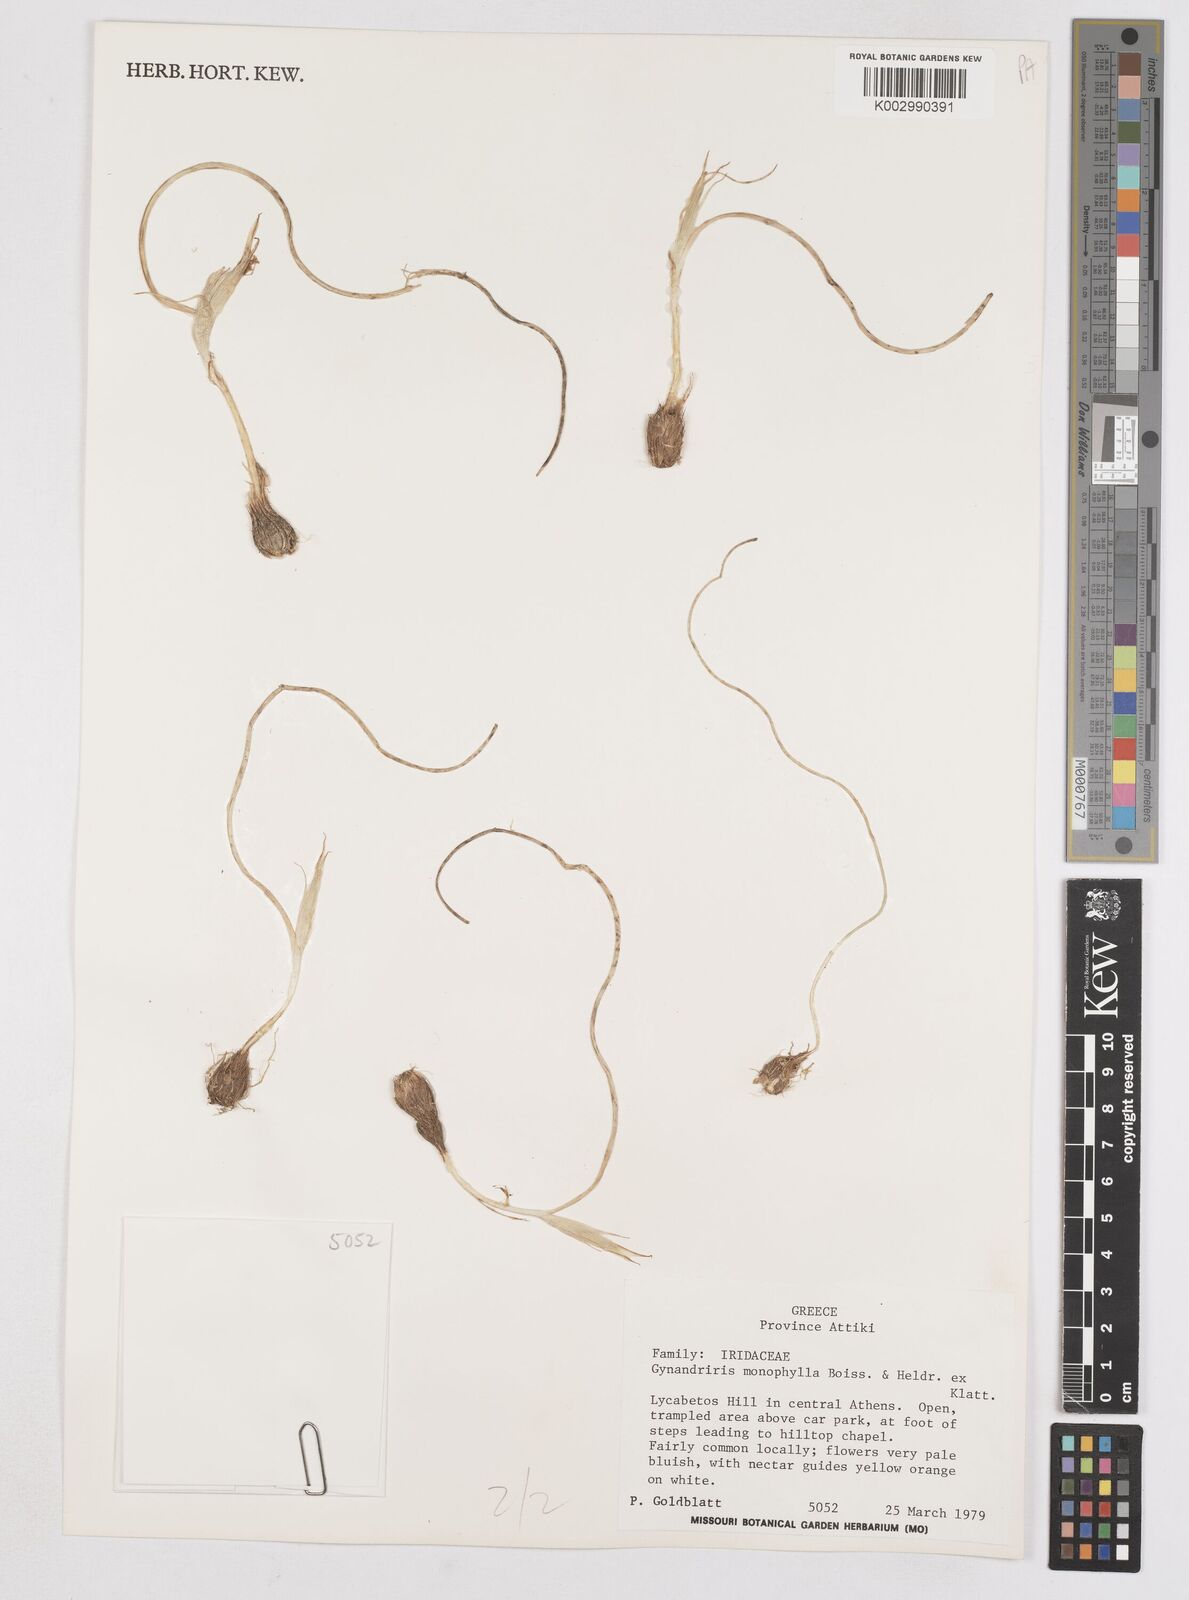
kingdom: Plantae
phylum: Tracheophyta
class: Liliopsida
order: Asparagales
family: Iridaceae
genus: Moraea
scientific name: Moraea
